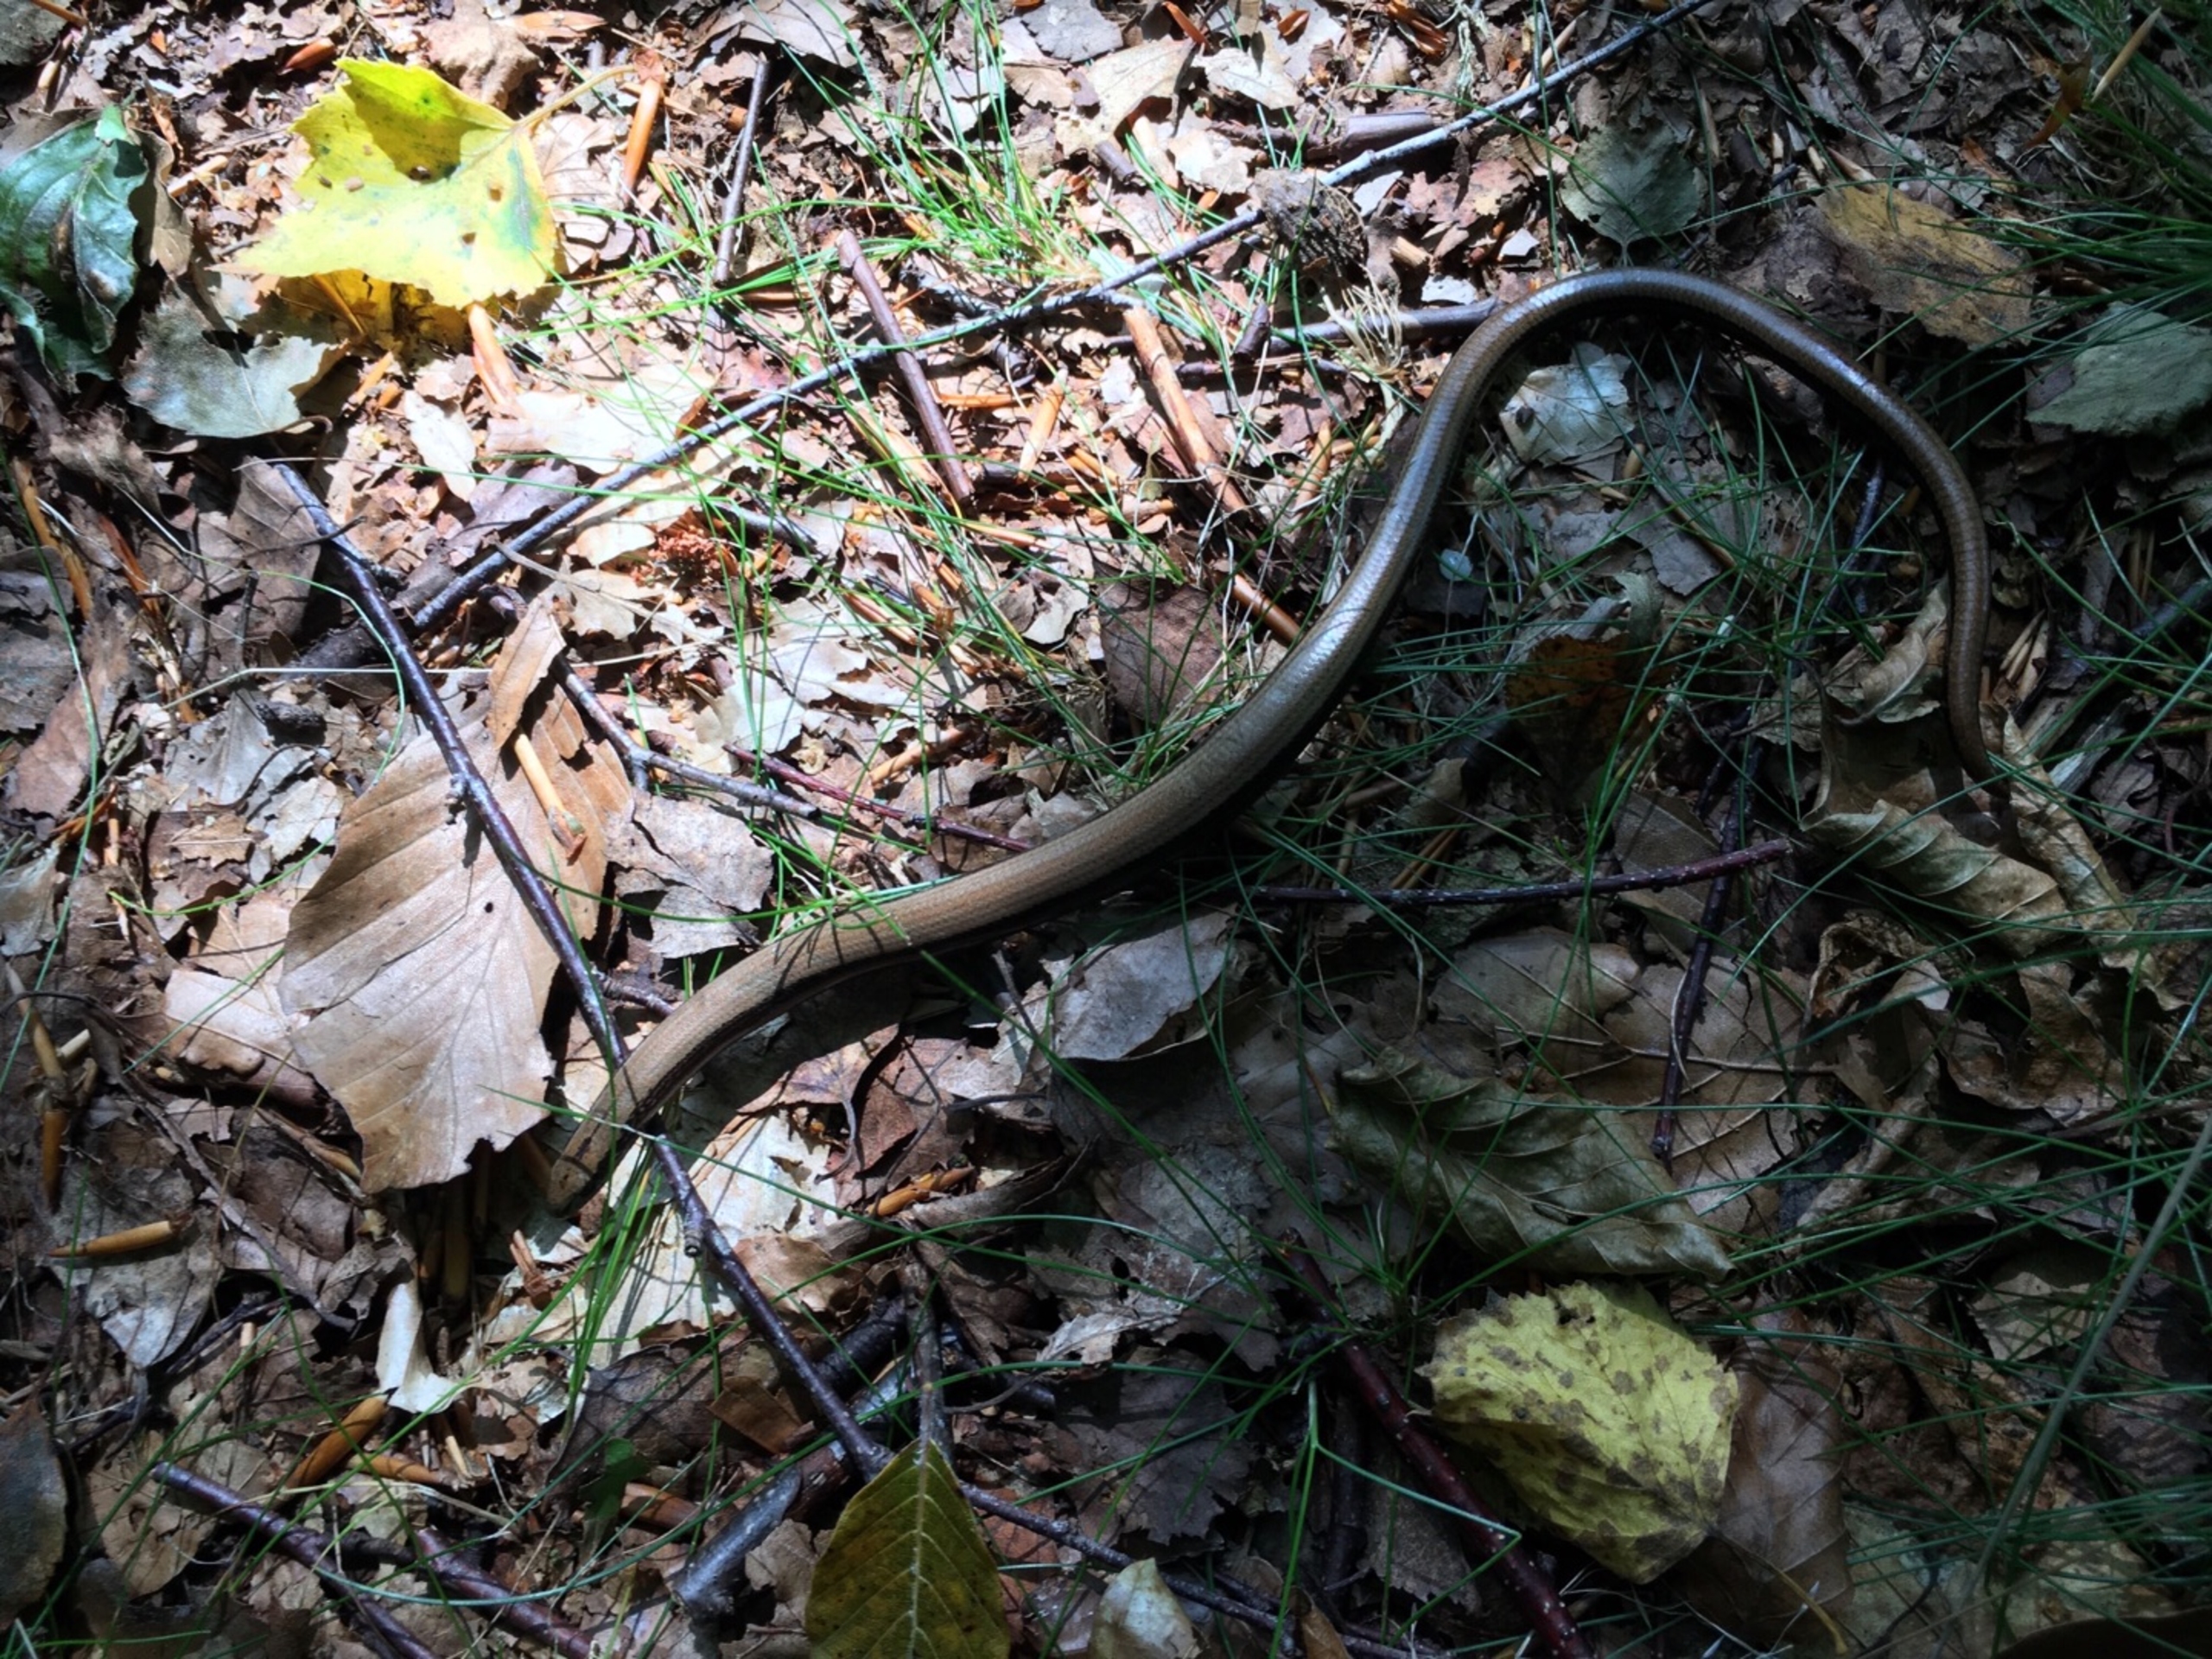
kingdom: Animalia
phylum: Chordata
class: Squamata
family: Anguidae
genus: Anguis
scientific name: Anguis fragilis
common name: Stålorm
